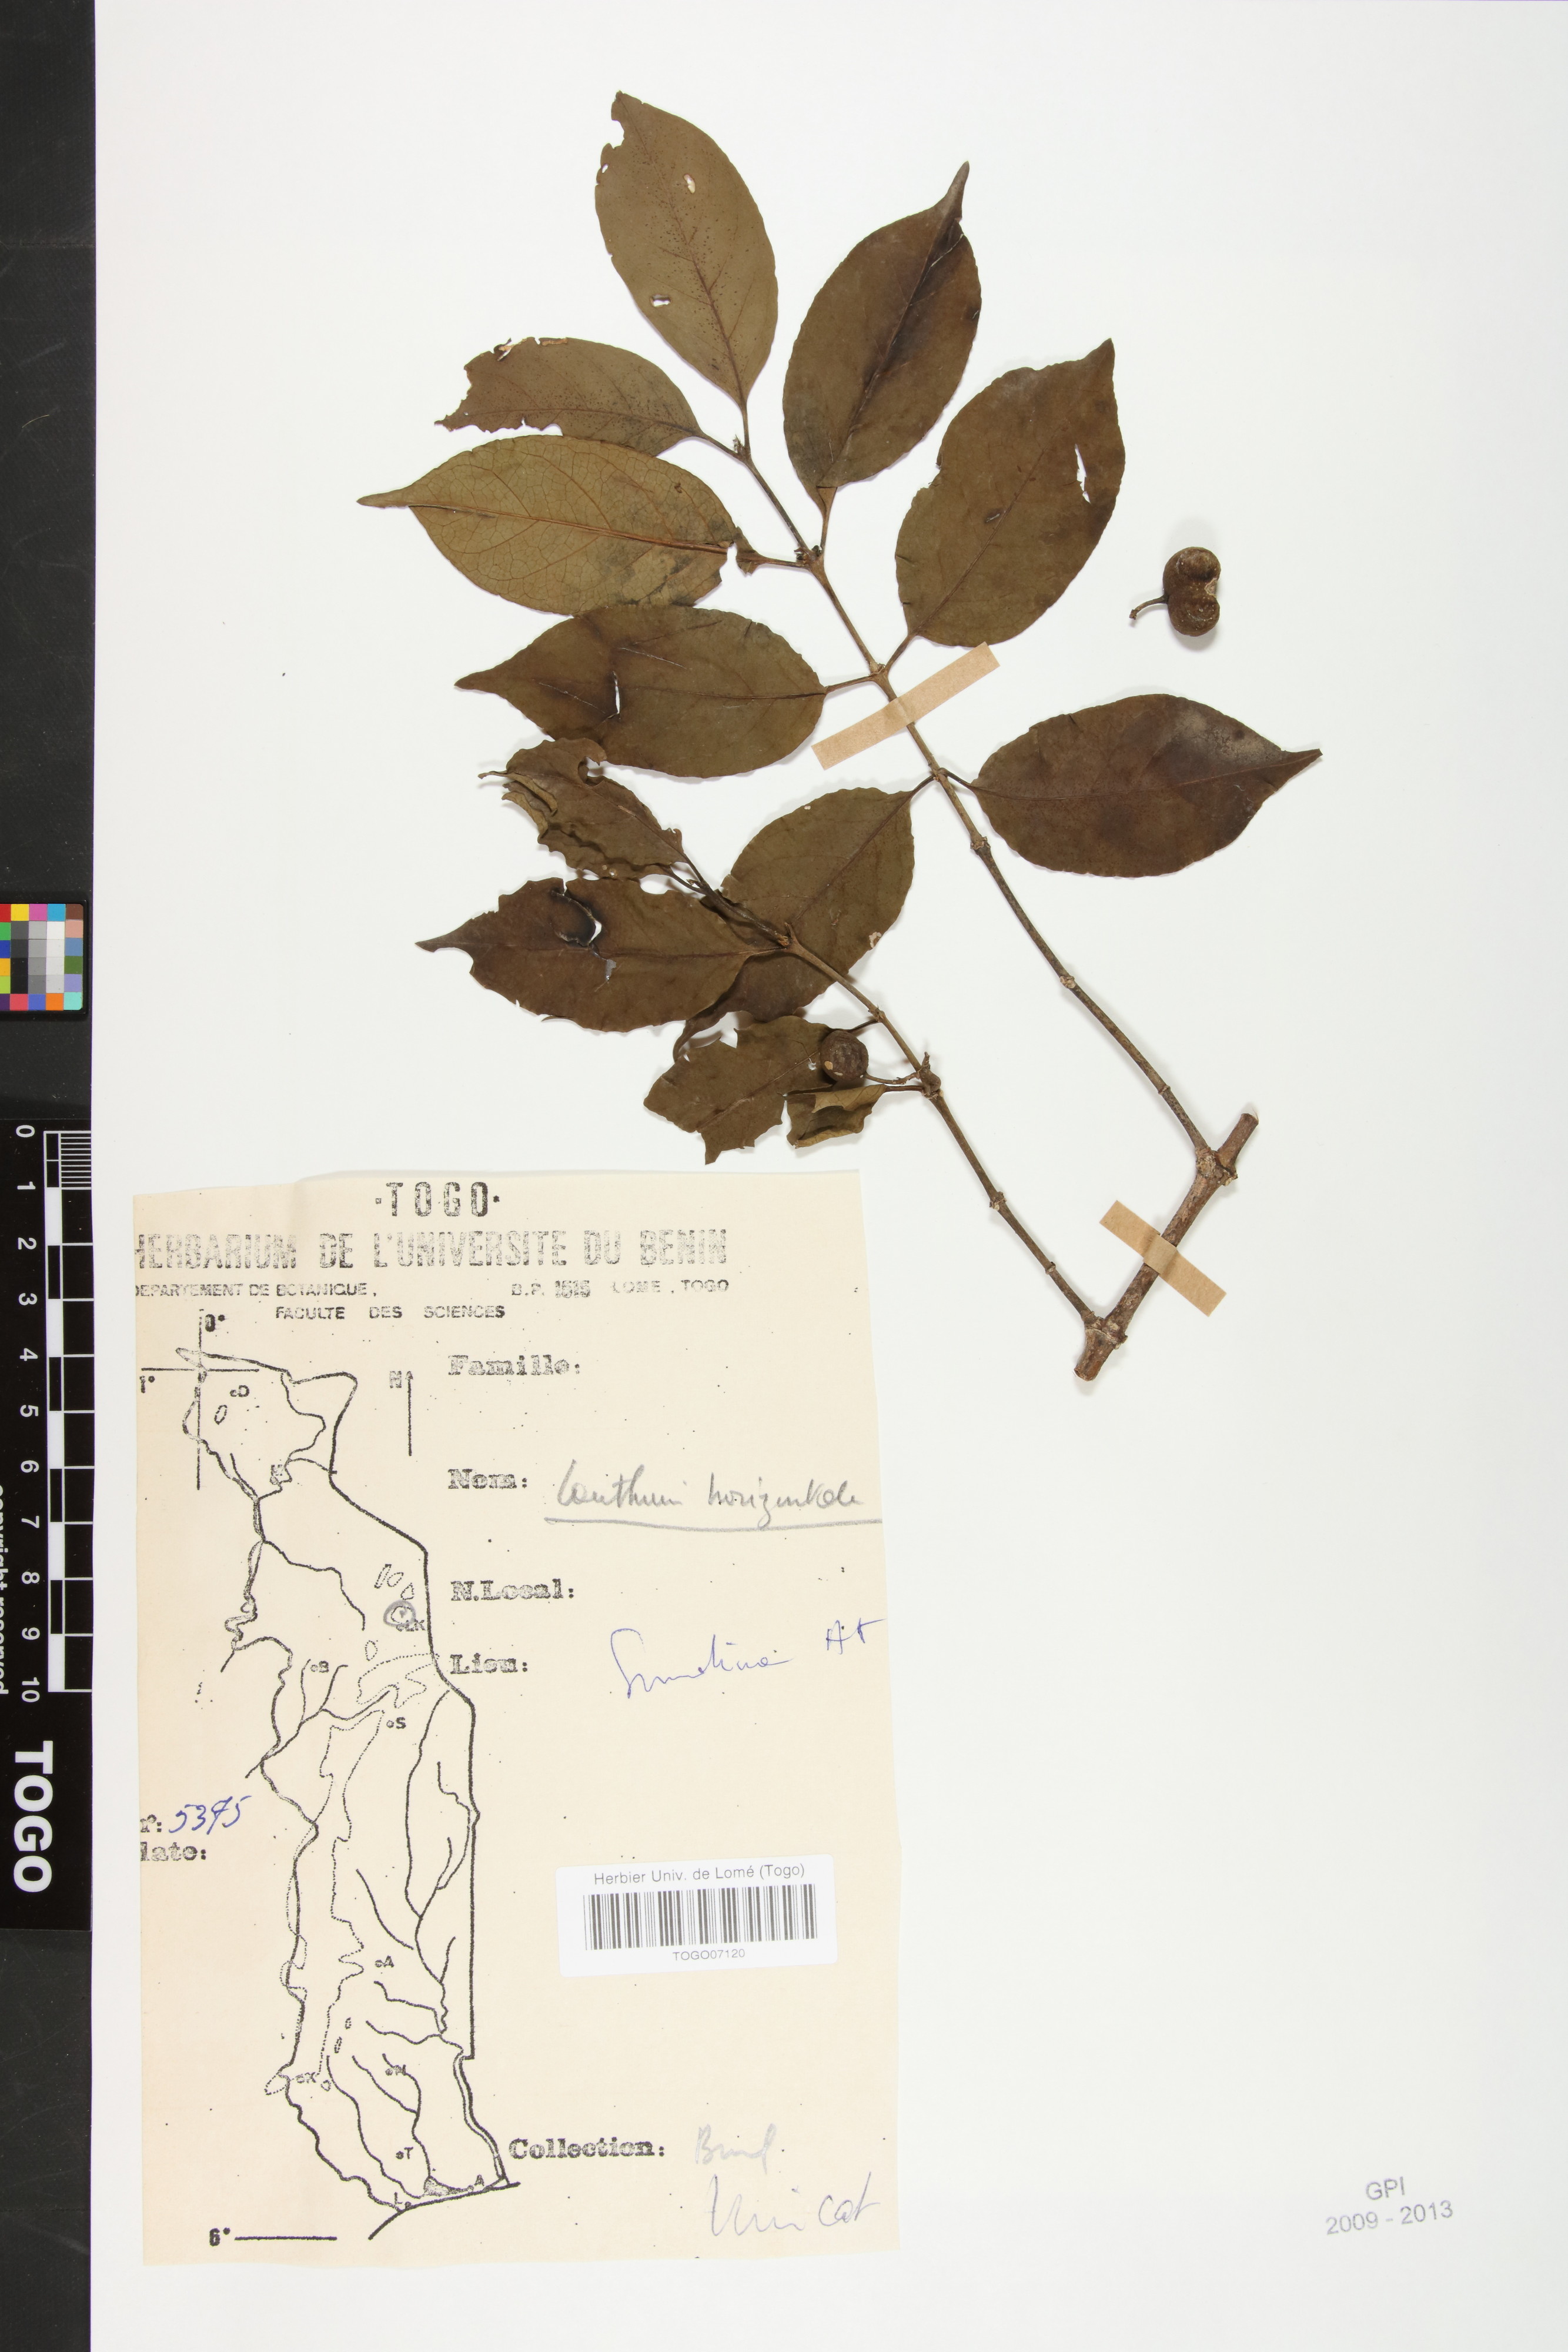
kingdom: Plantae
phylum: Tracheophyta
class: Magnoliopsida
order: Gentianales
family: Rubiaceae
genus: Psydrax
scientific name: Psydrax horizontalis
